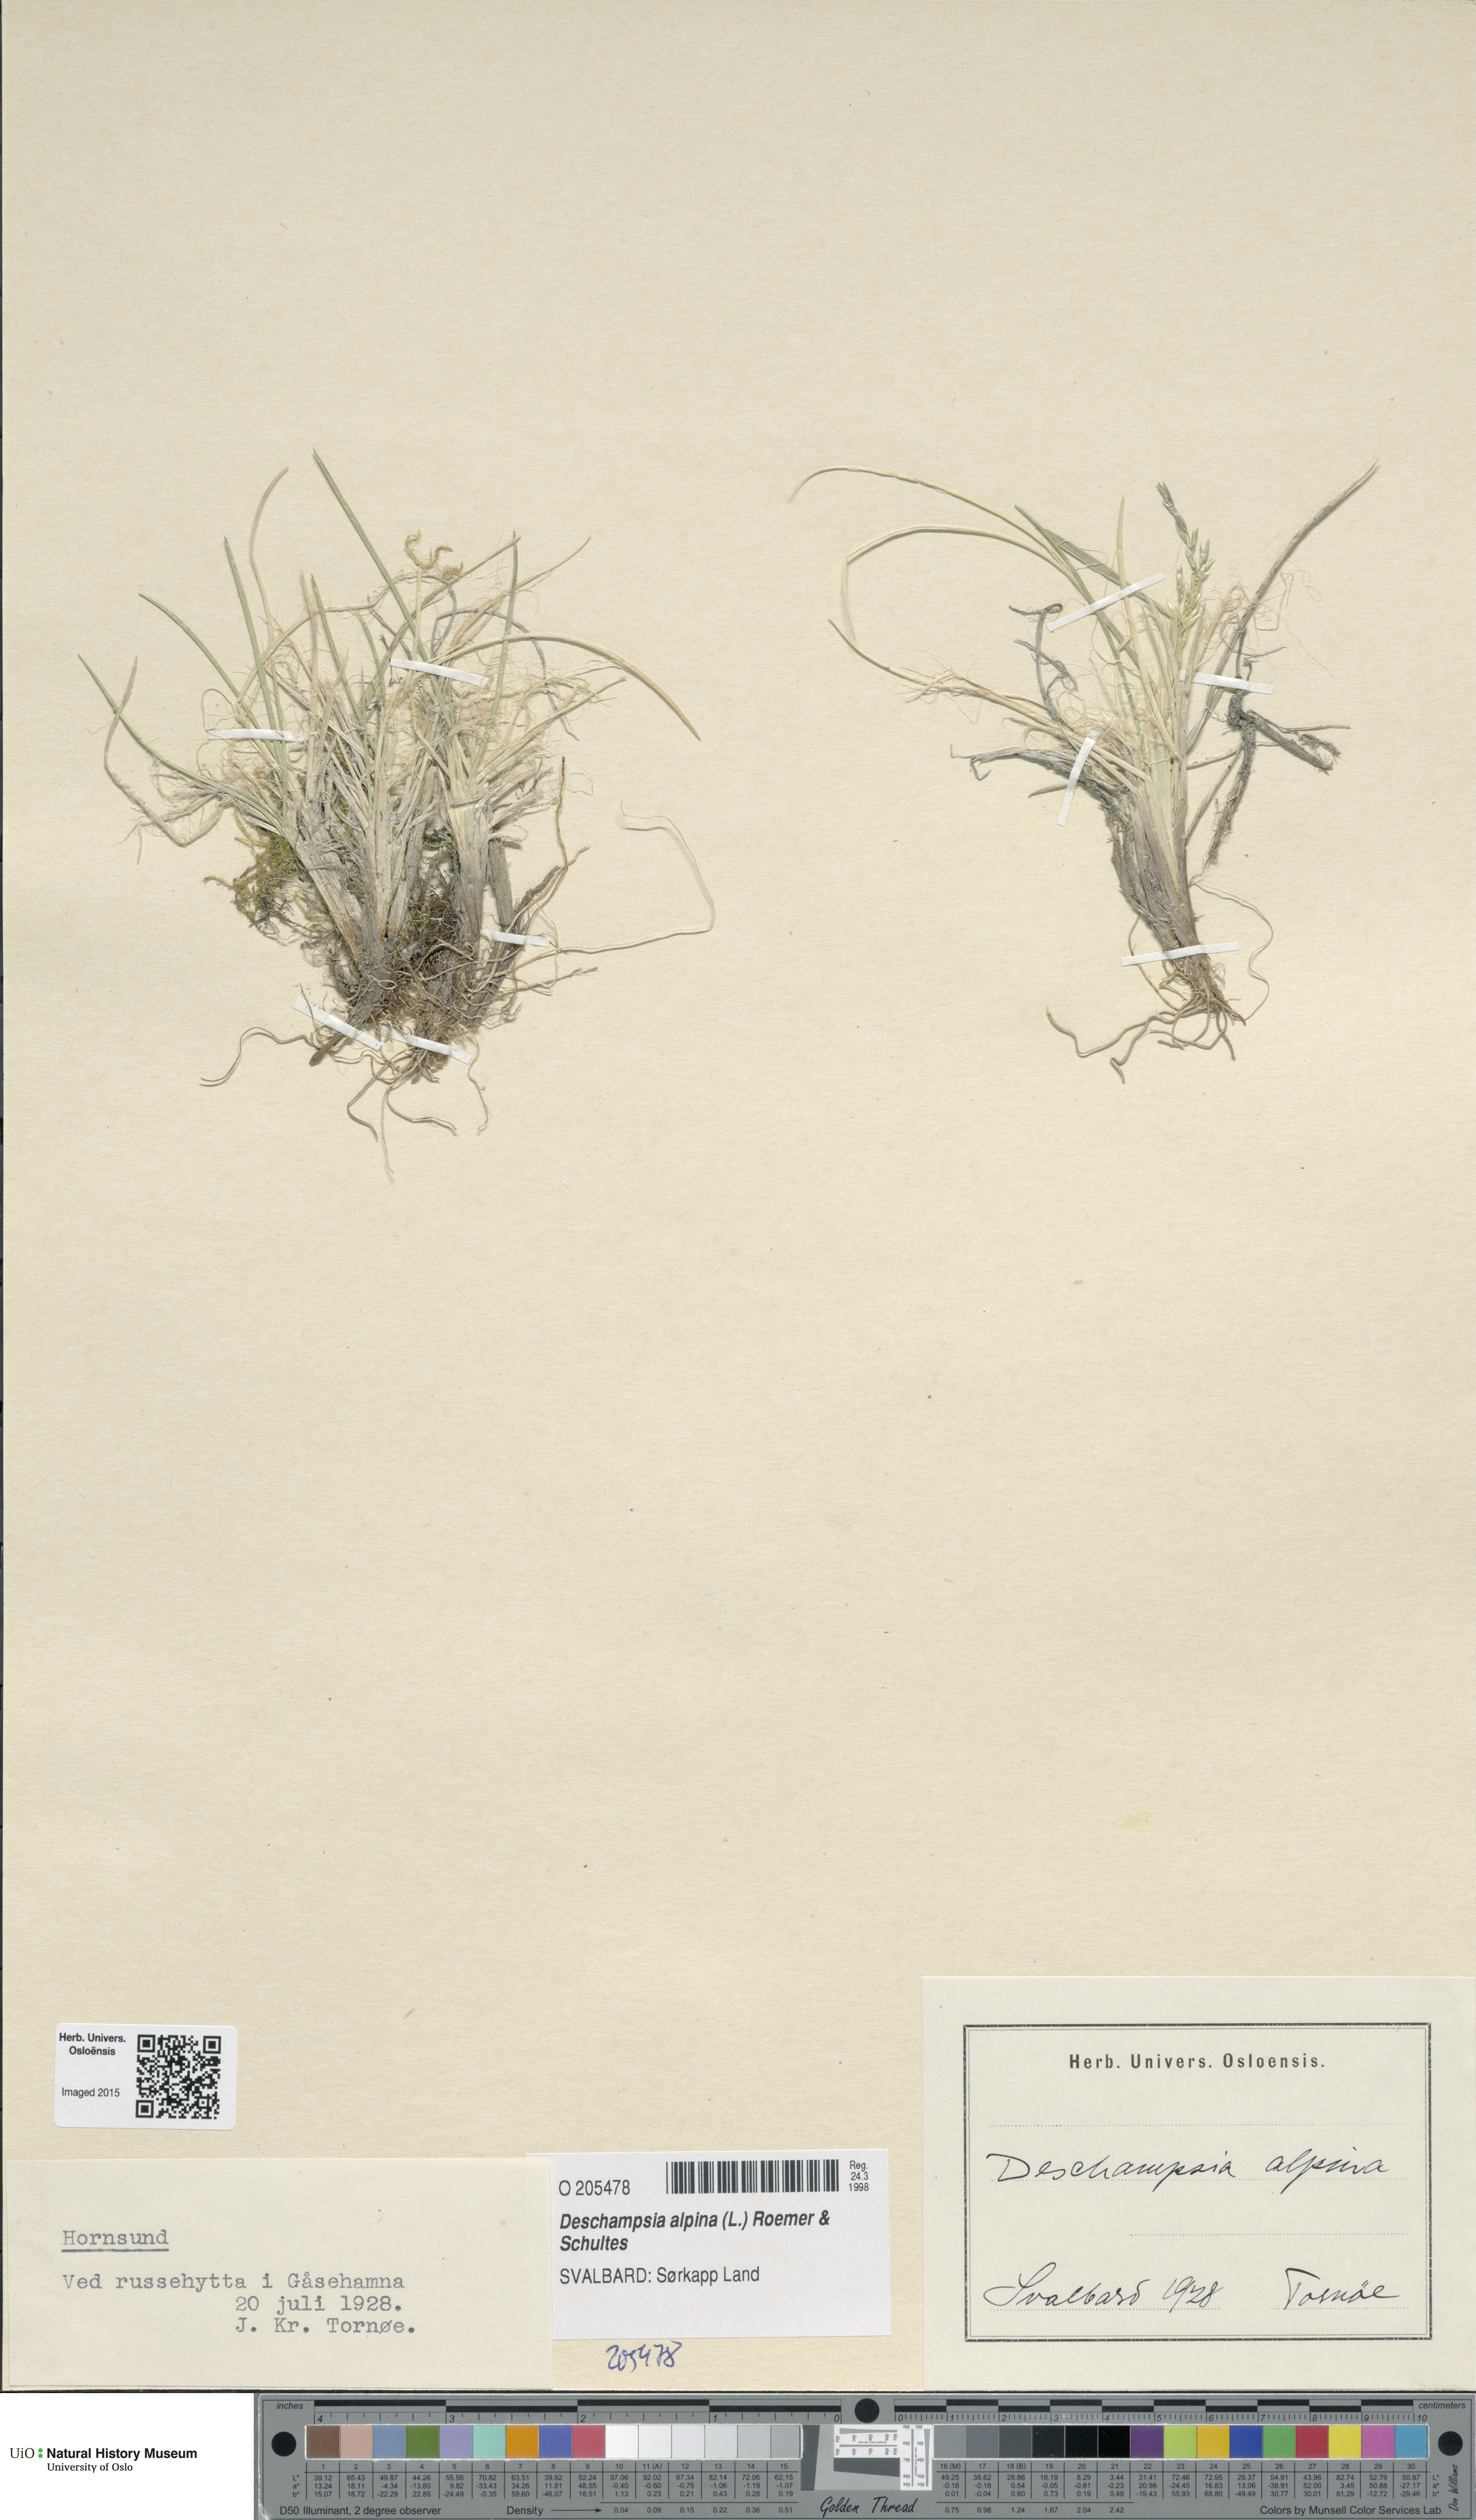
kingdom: Plantae
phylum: Tracheophyta
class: Liliopsida
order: Poales
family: Poaceae
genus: Deschampsia
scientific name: Deschampsia cespitosa
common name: Tufted hair-grass
